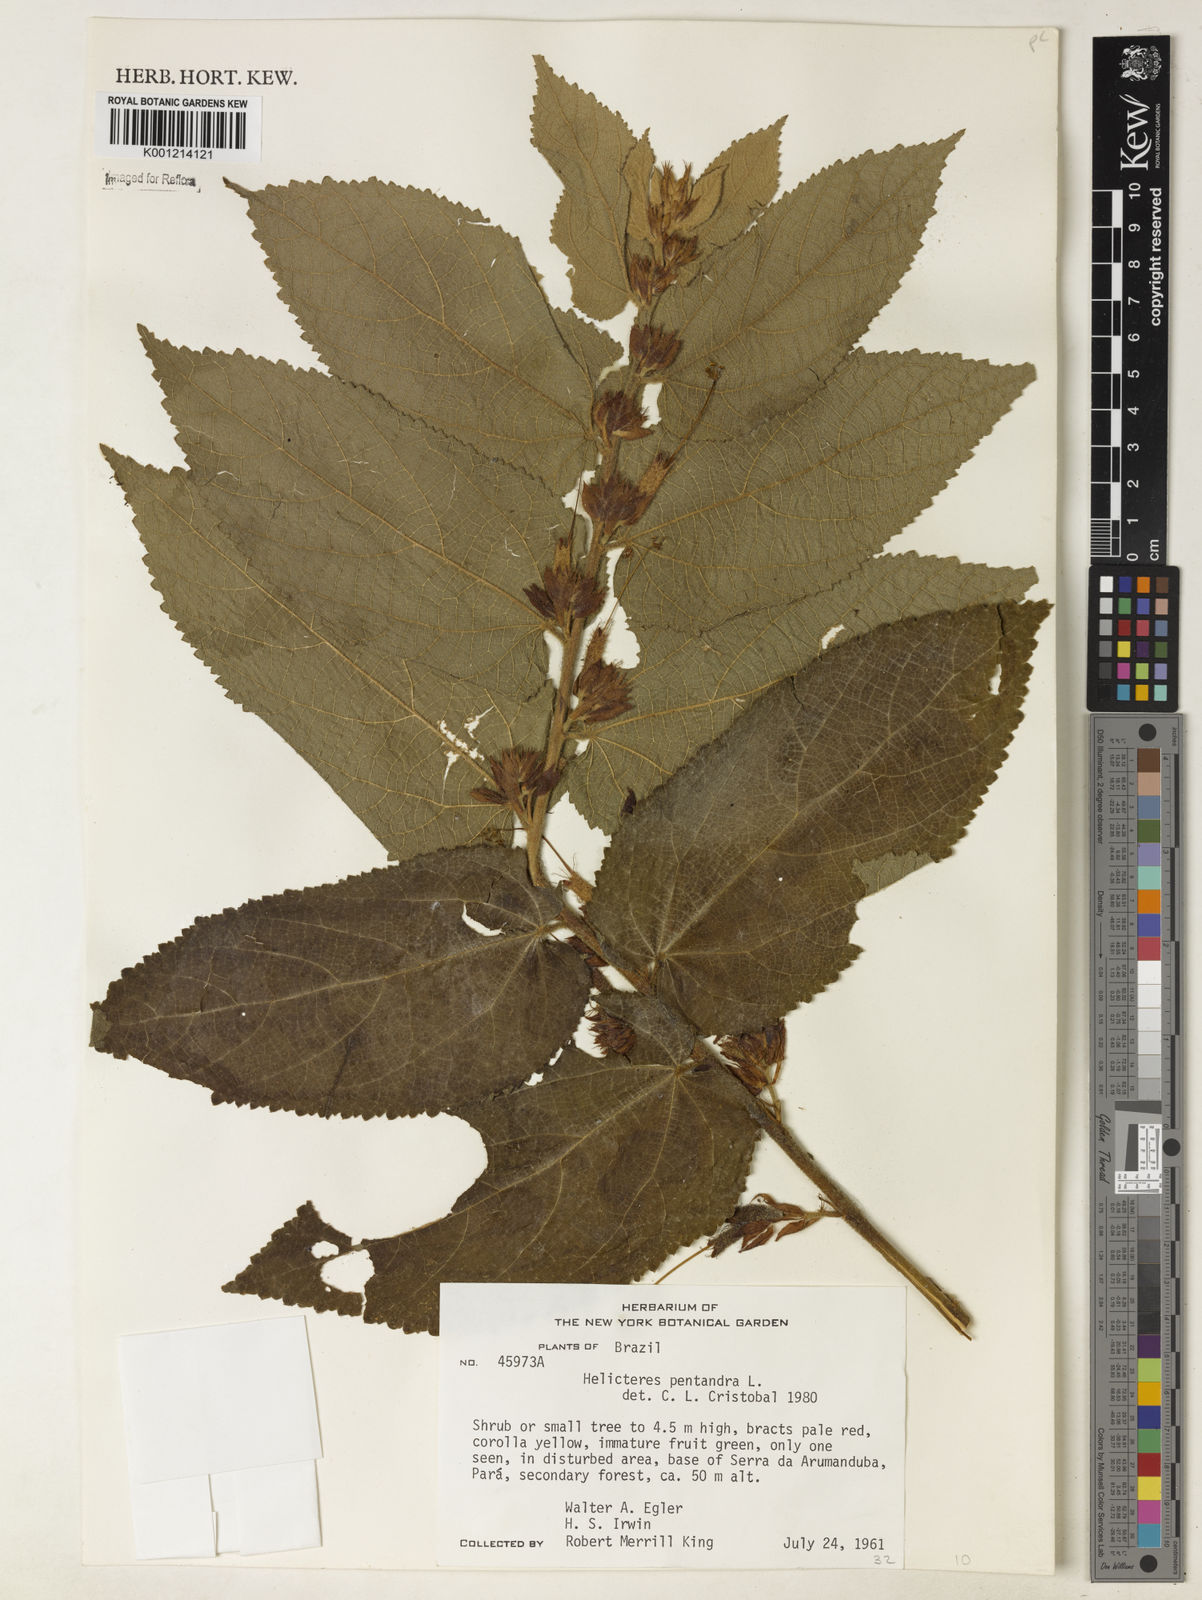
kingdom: Plantae
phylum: Tracheophyta
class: Magnoliopsida
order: Malvales
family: Malvaceae
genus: Helicteres
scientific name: Helicteres pentandra
